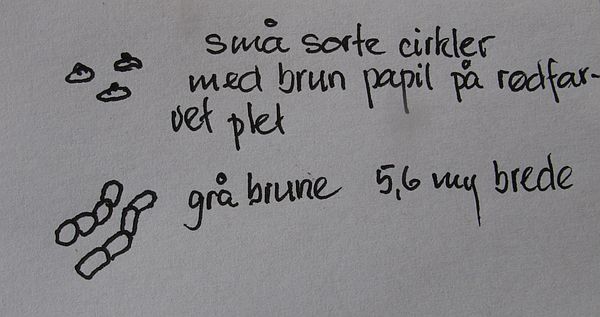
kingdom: Fungi
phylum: Basidiomycota
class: Pucciniomycetes
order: Pucciniales
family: Gymnosporangiaceae
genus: Gymnosporangium
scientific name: Gymnosporangium sabinae
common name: pæregitter-bævrerust
